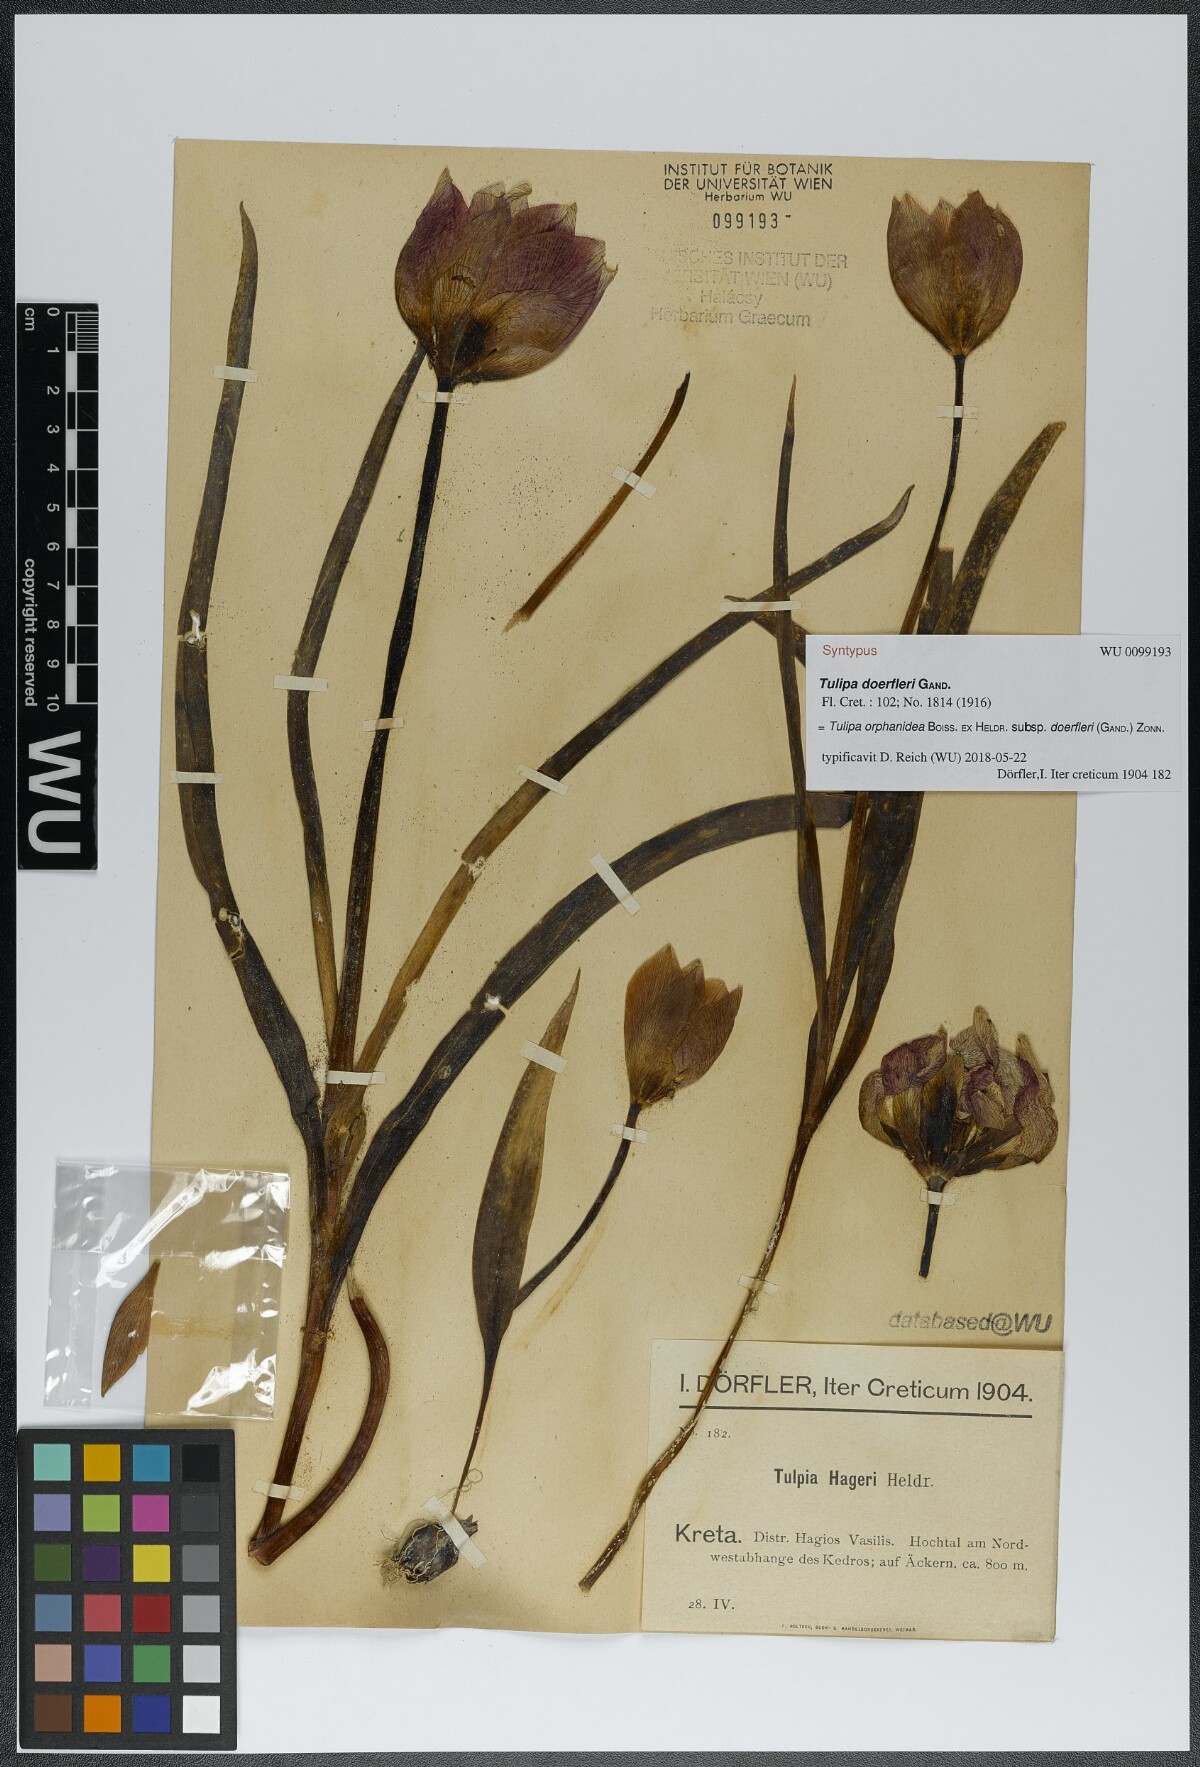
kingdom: Plantae
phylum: Tracheophyta
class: Liliopsida
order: Liliales
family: Liliaceae
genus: Tulipa
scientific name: Tulipa orphanidea
